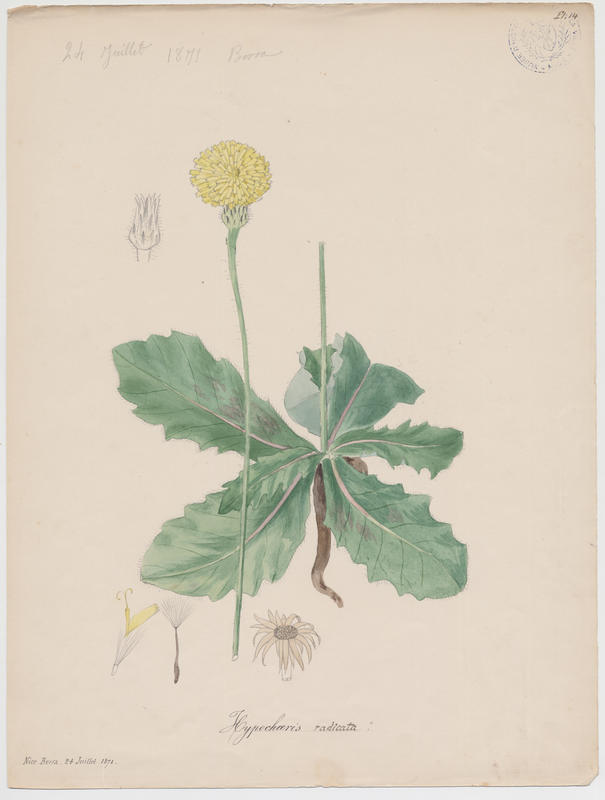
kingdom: Plantae
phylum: Tracheophyta
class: Magnoliopsida
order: Asterales
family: Asteraceae
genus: Hypochoeris
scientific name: Hypochoeris radicata
